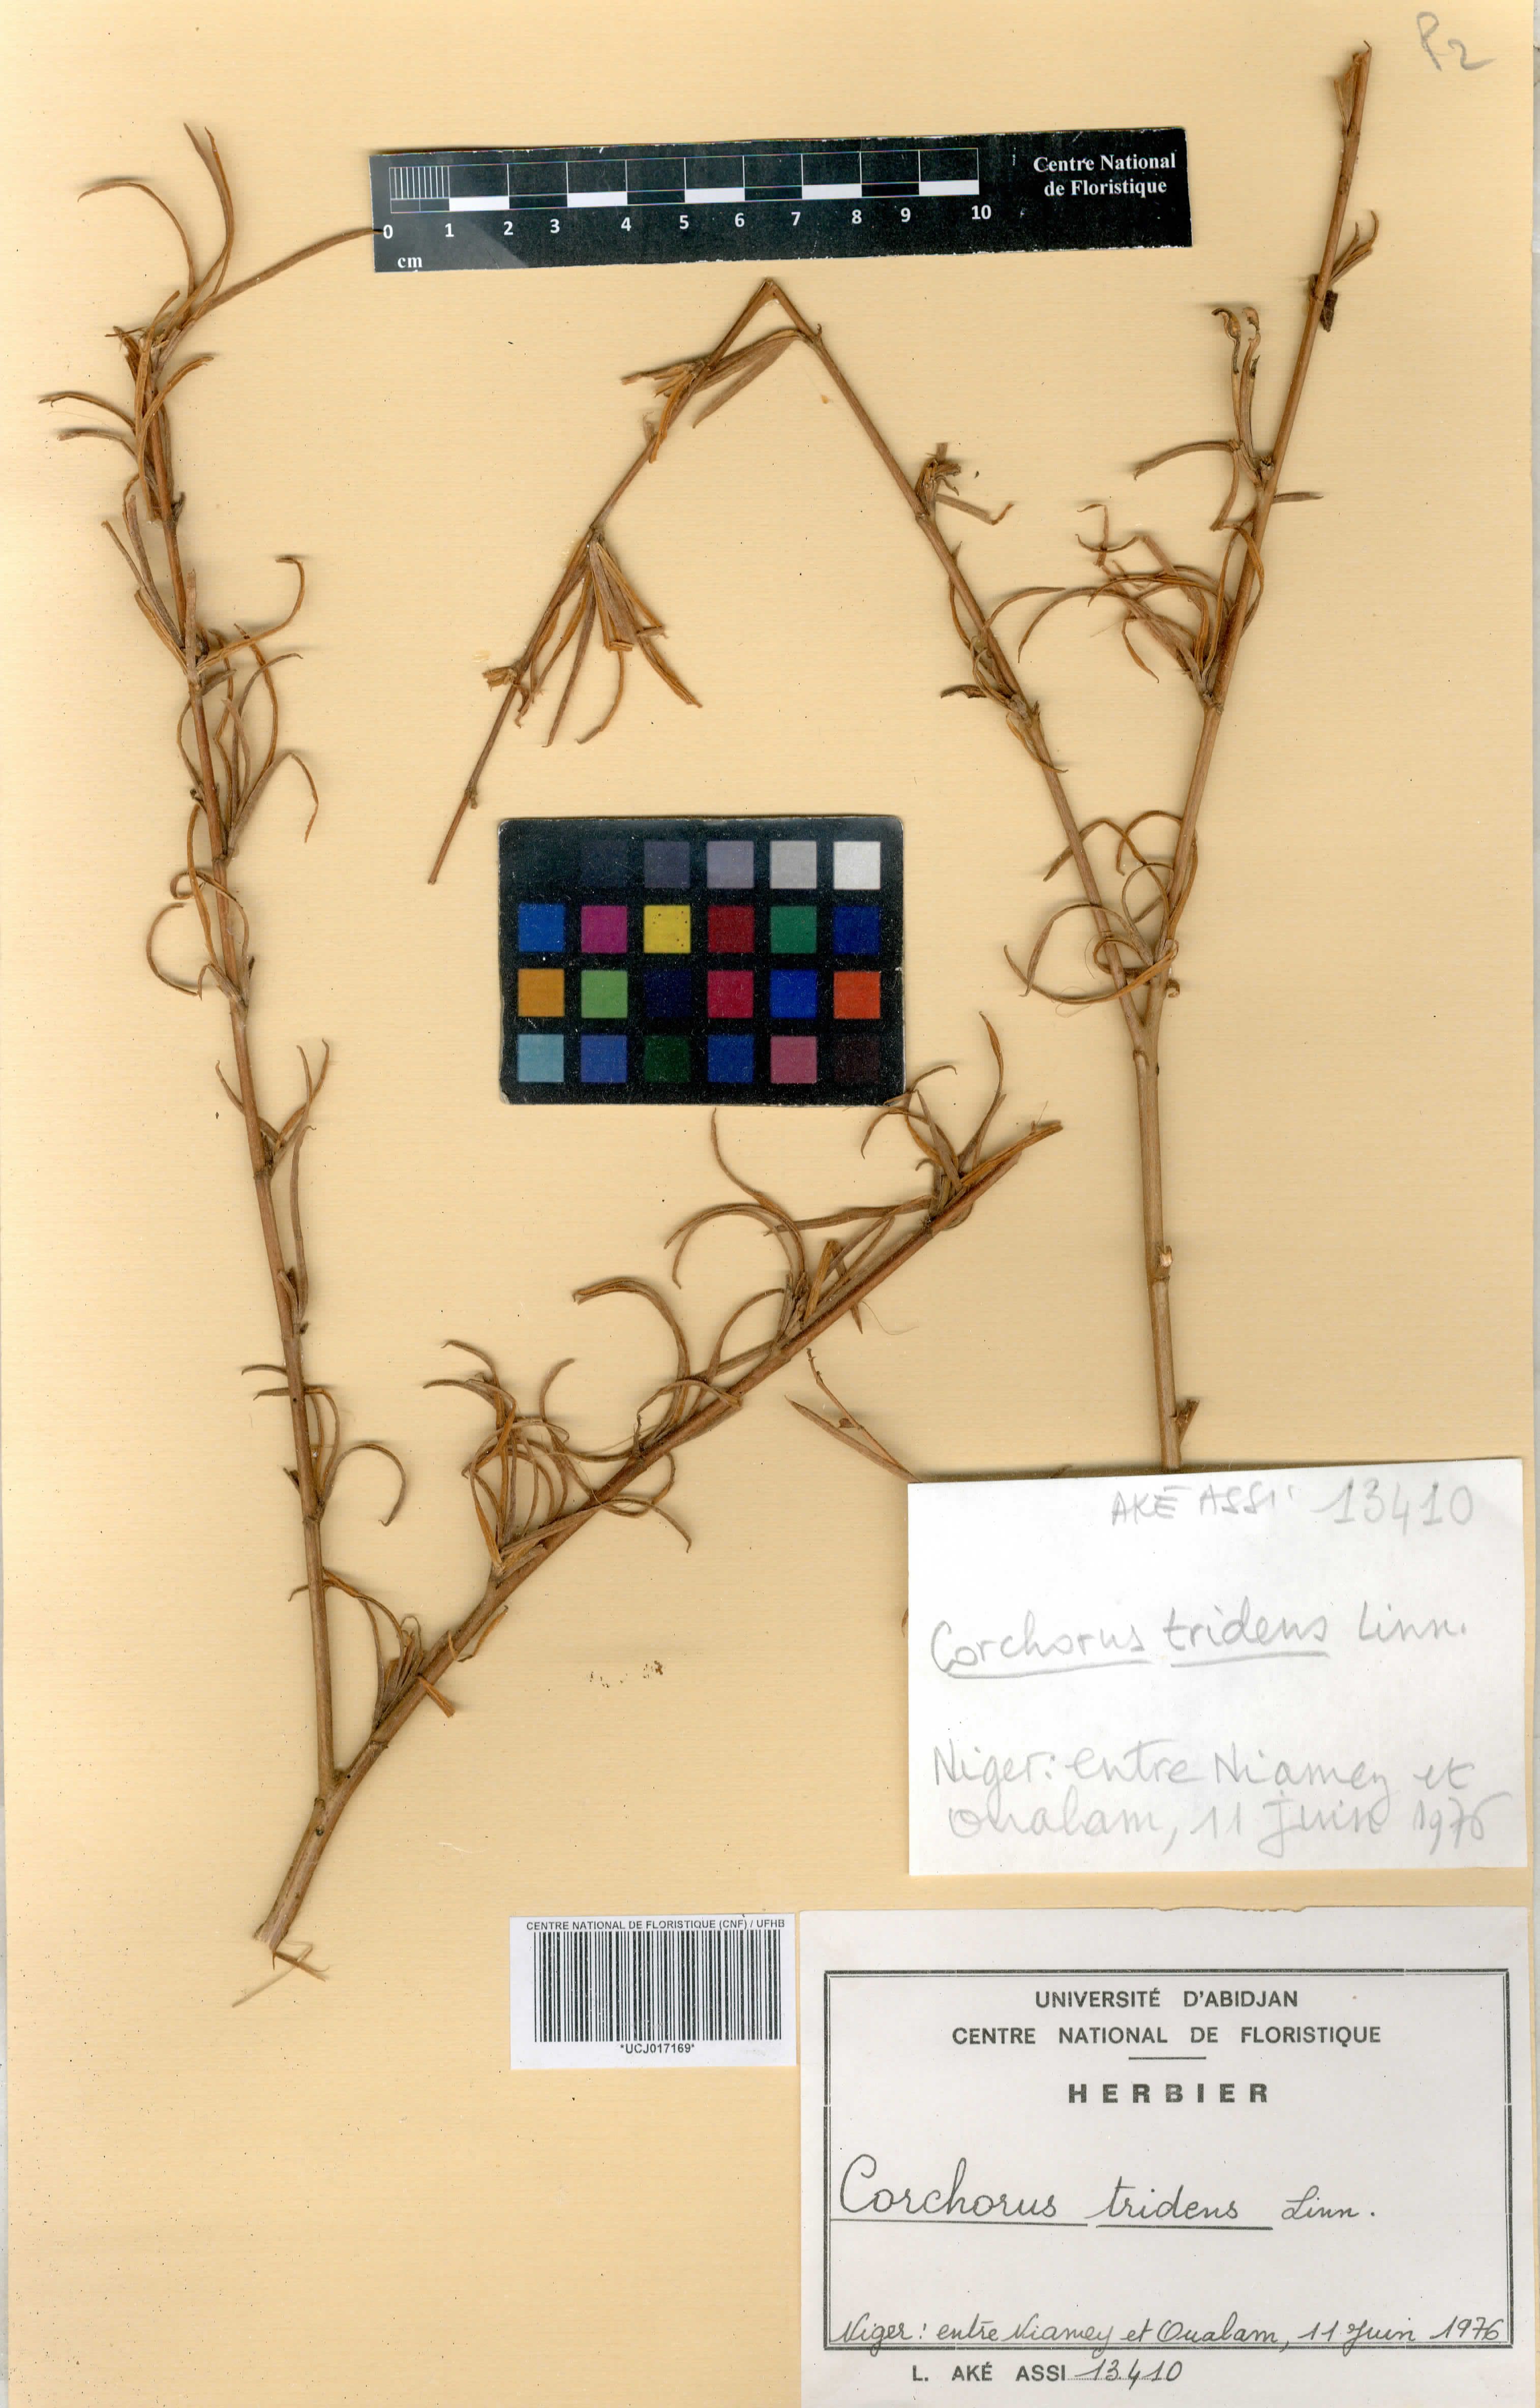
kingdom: Plantae
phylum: Tracheophyta
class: Magnoliopsida
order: Malvales
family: Malvaceae
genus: Corchorus
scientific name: Corchorus tridens
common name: Wild jute
